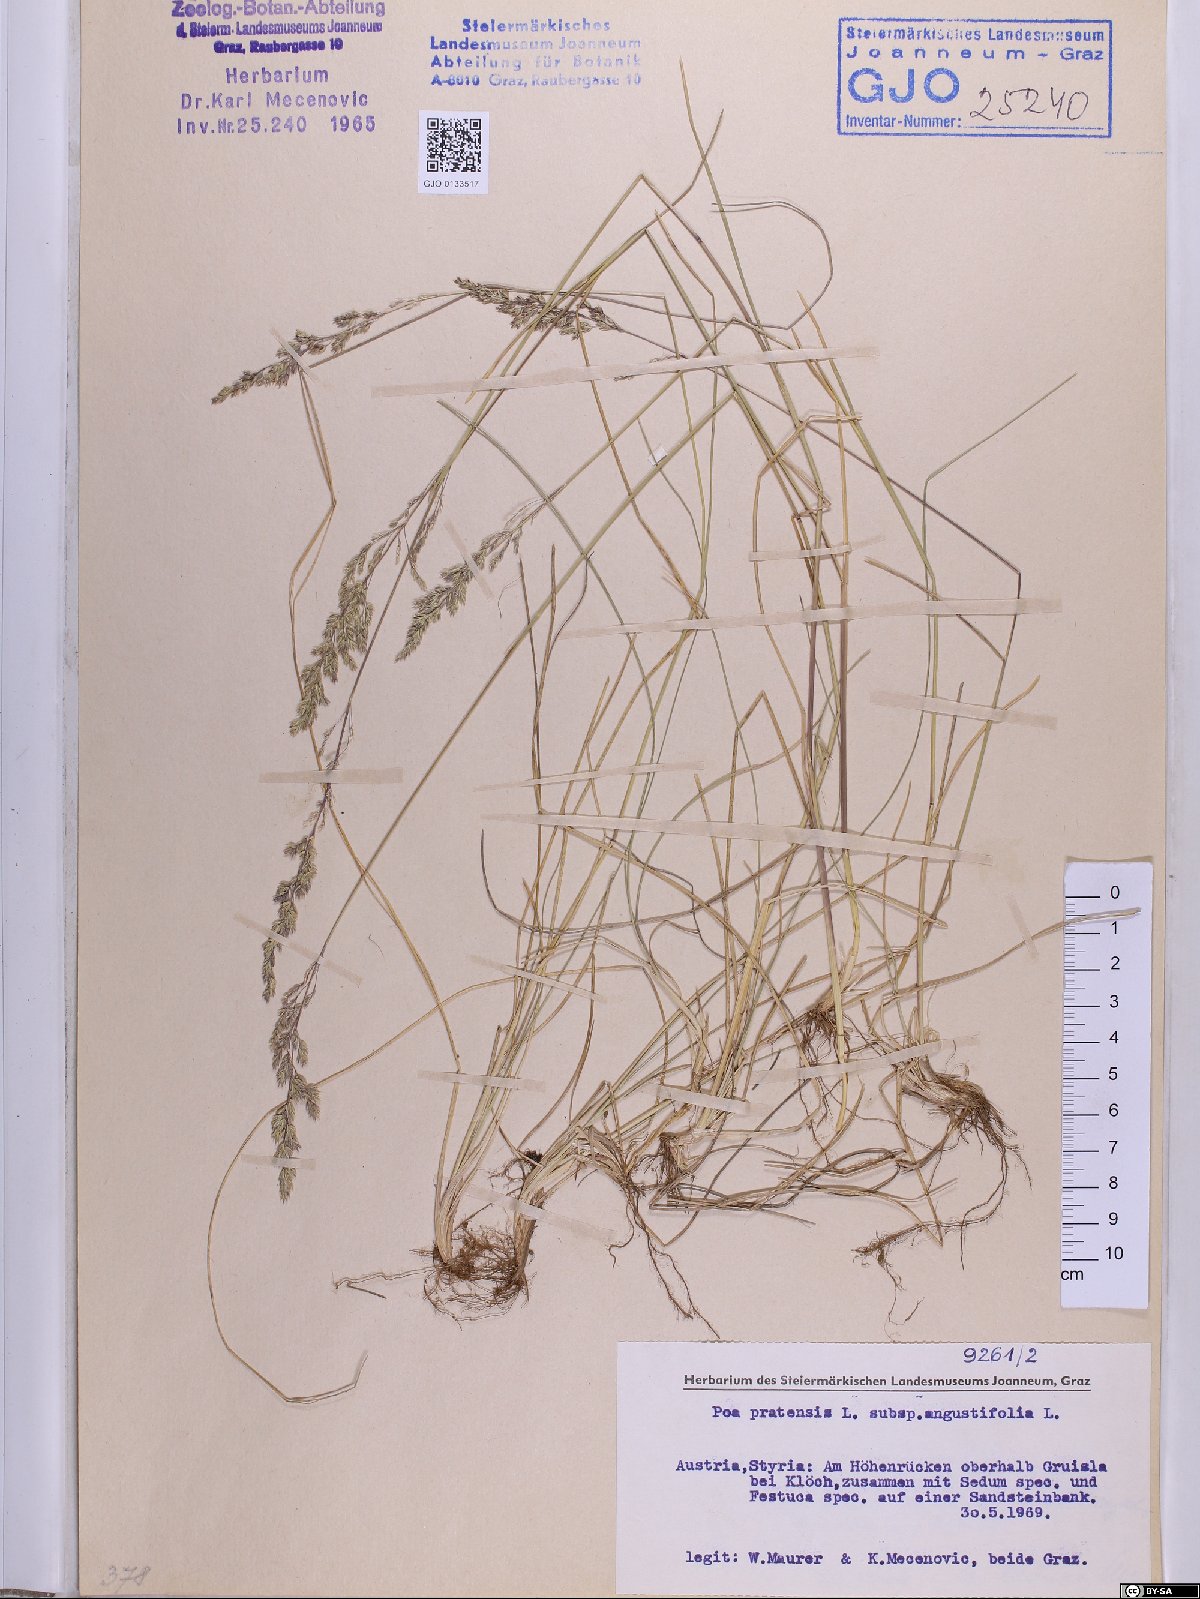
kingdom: Plantae
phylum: Tracheophyta
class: Liliopsida
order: Poales
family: Poaceae
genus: Poa
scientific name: Poa angustifolia
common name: Narrow-leaved meadow-grass
